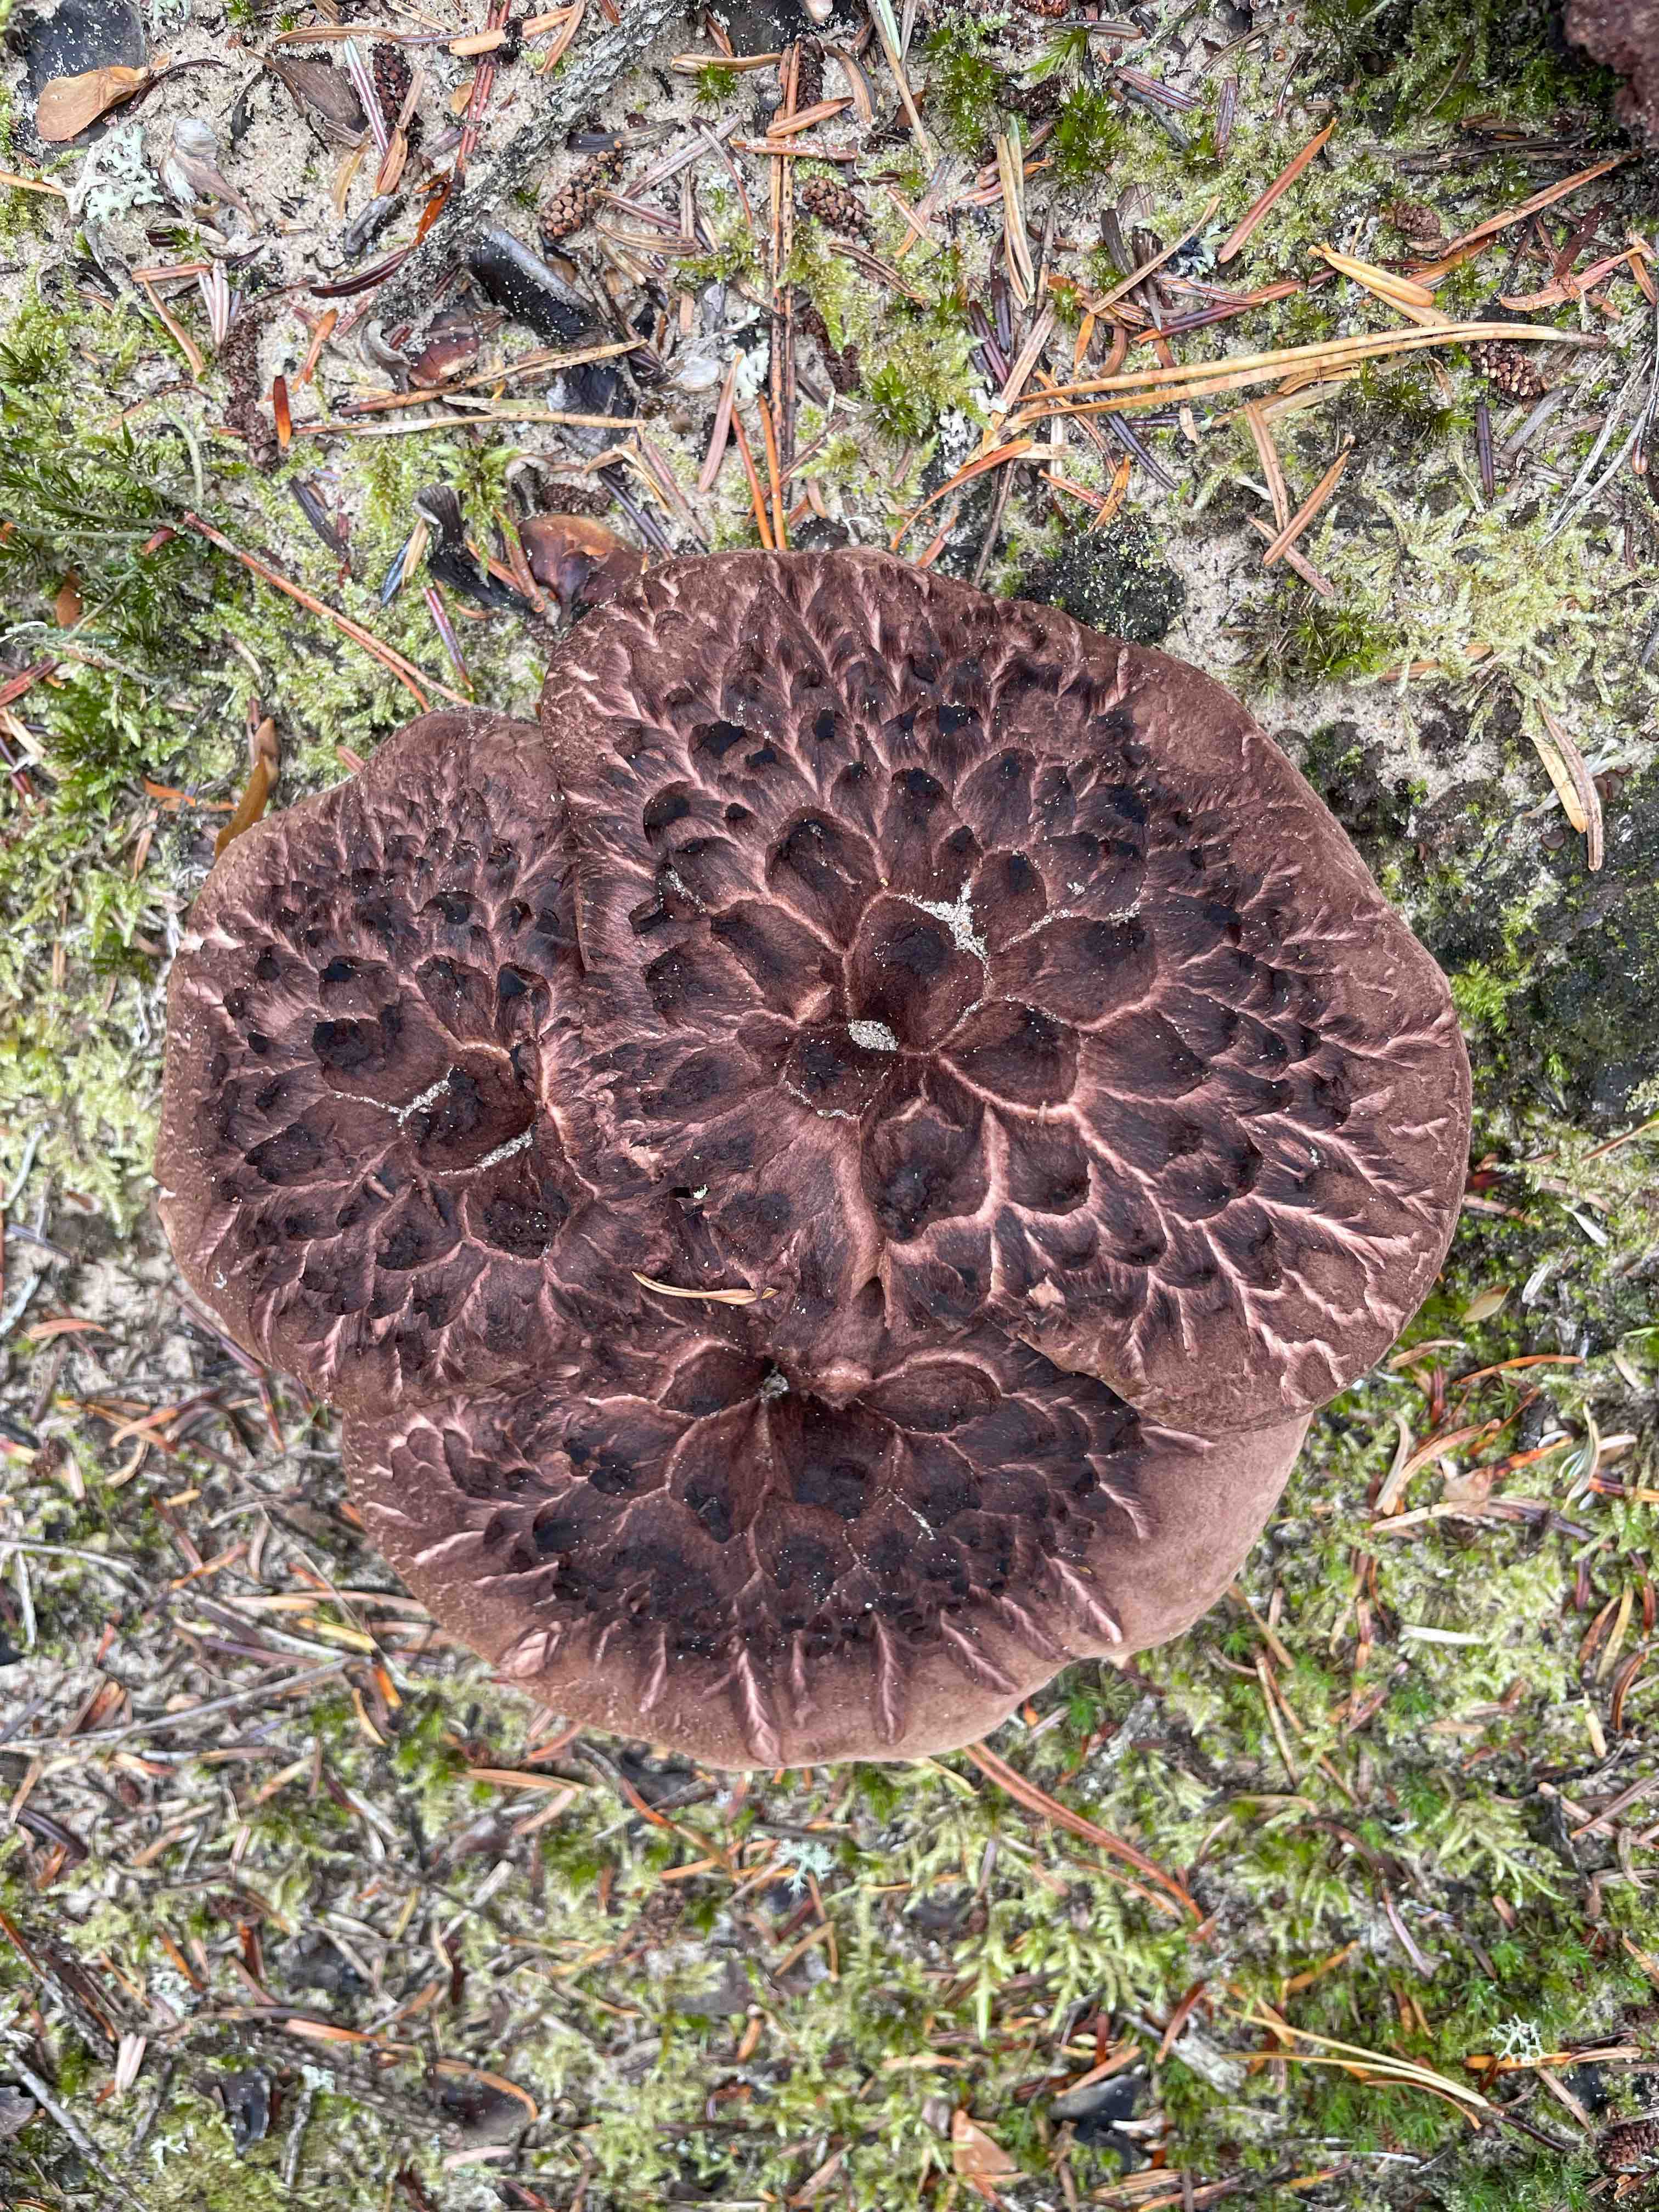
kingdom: Fungi
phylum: Basidiomycota
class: Agaricomycetes
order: Thelephorales
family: Bankeraceae
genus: Sarcodon
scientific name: Sarcodon squamosus
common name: småskællet kødpigsvamp
